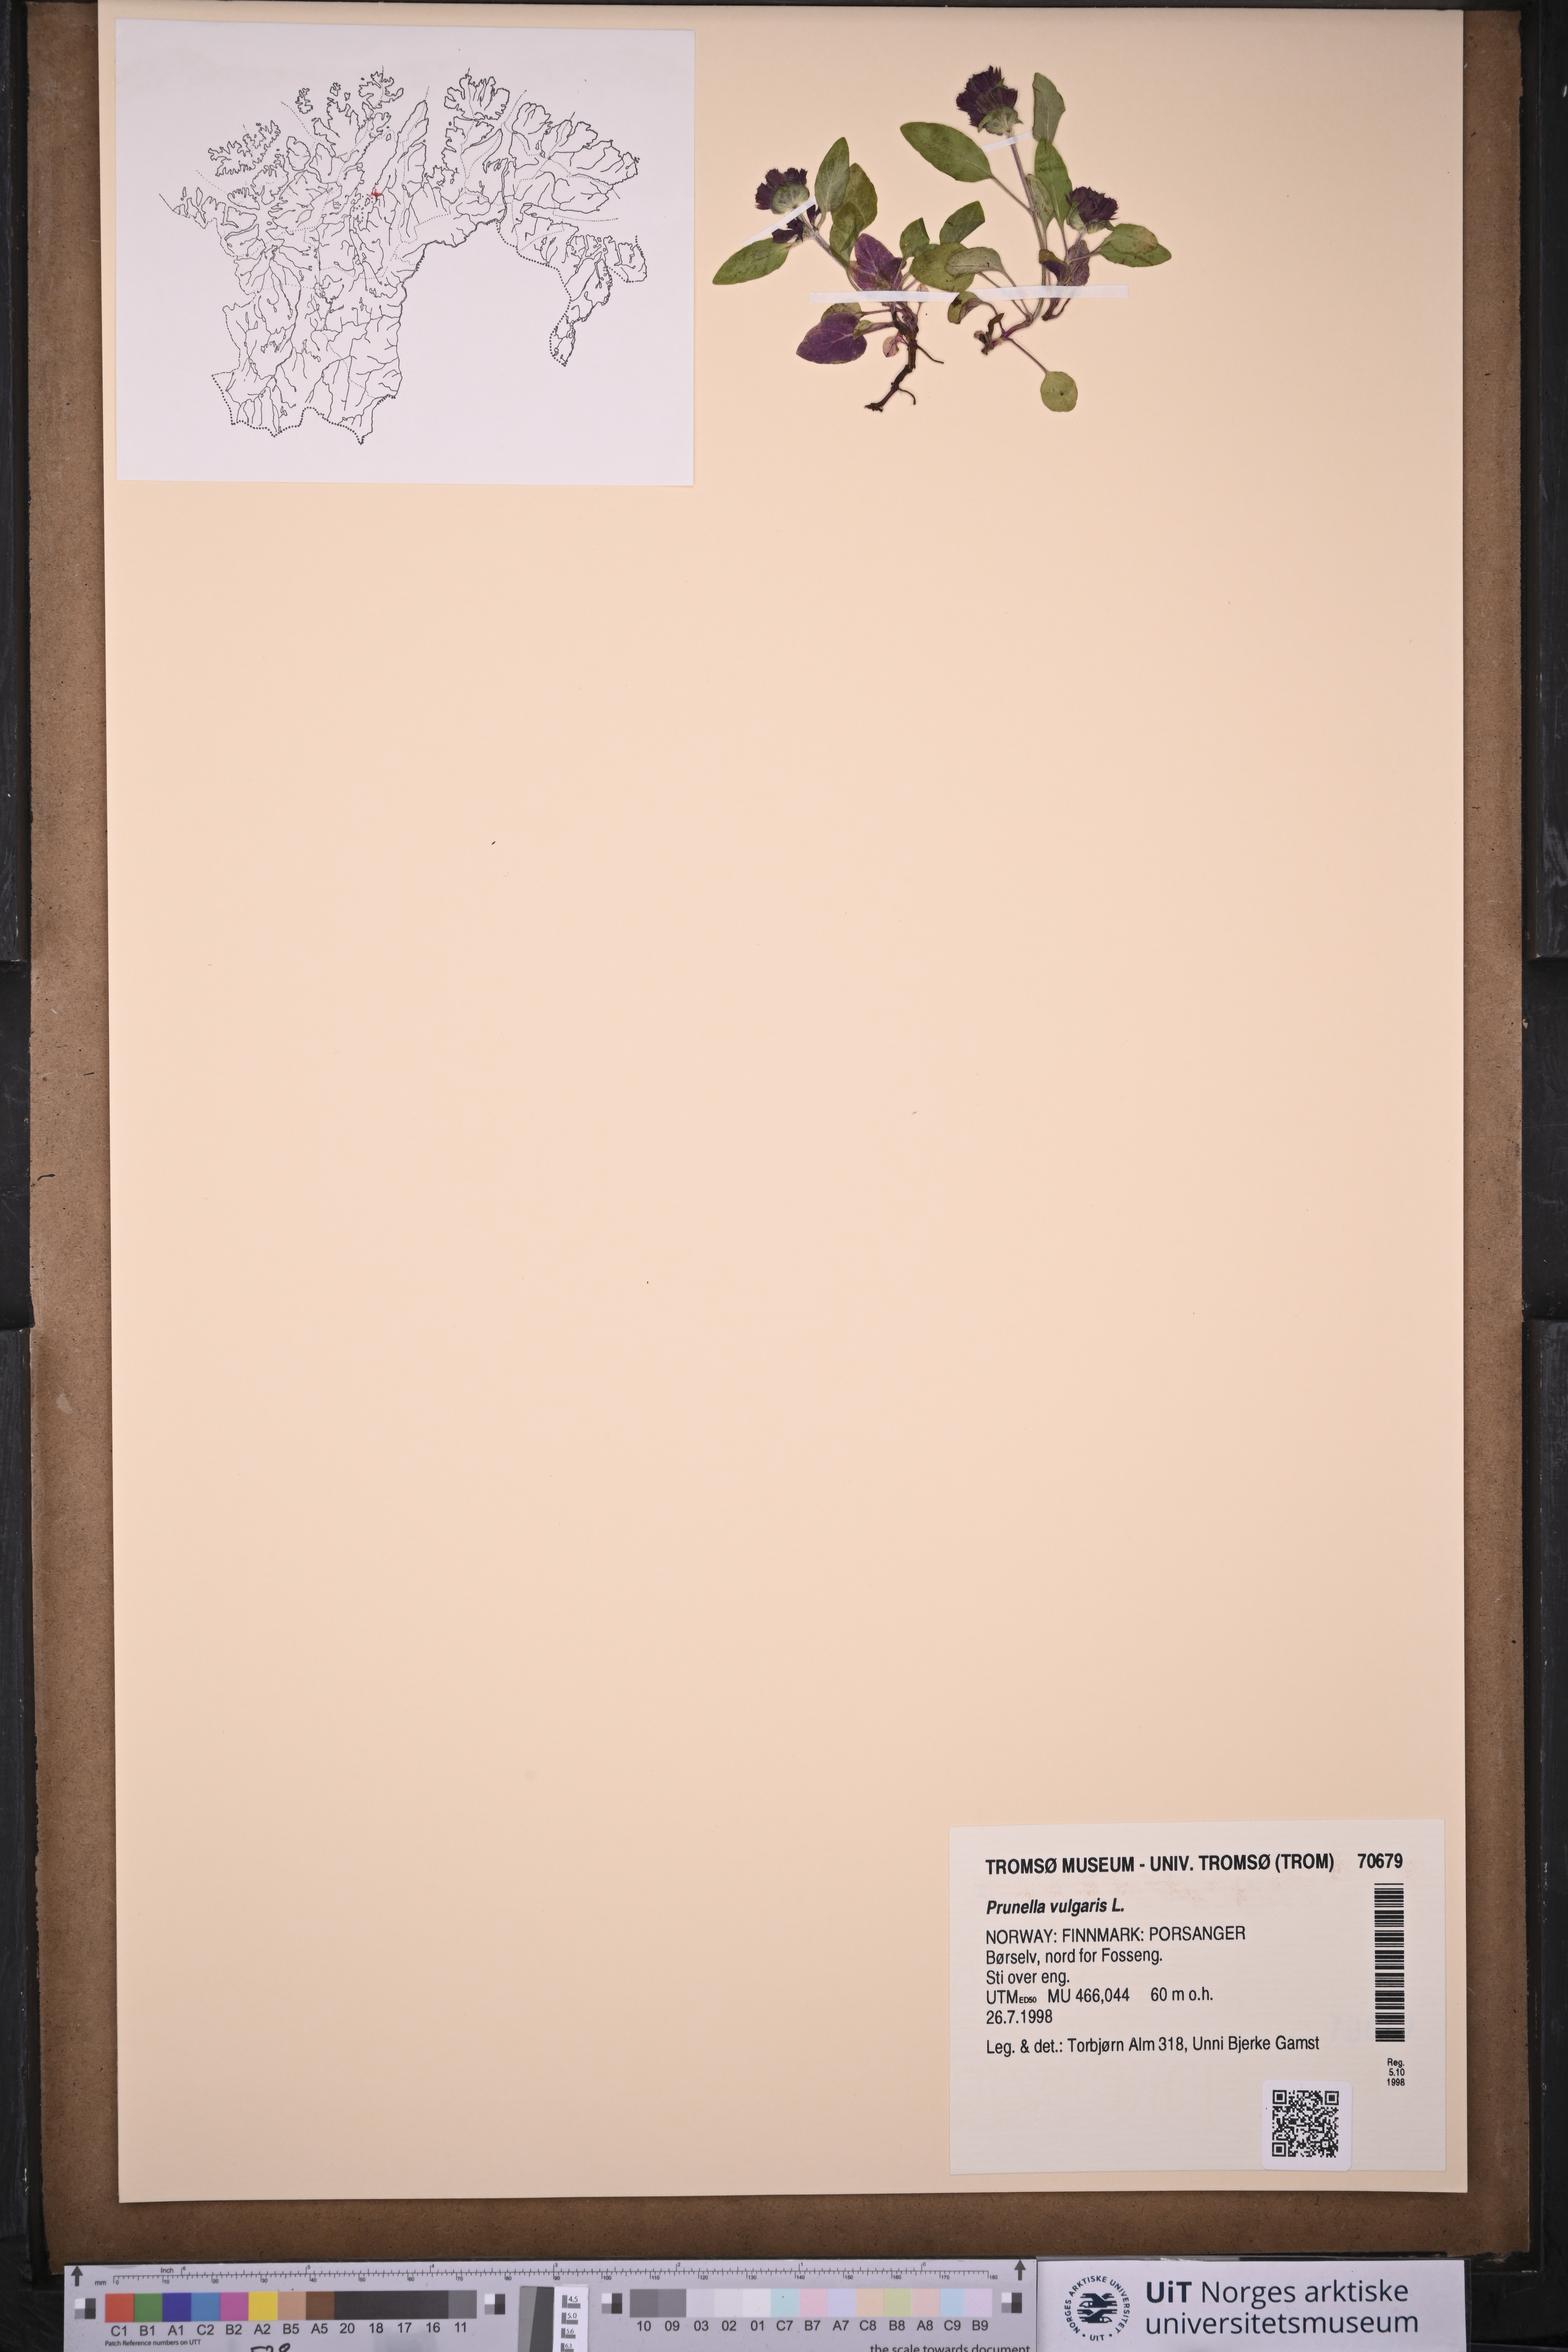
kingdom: Plantae
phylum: Tracheophyta
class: Magnoliopsida
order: Lamiales
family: Lamiaceae
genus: Prunella
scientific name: Prunella vulgaris
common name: Heal-all
